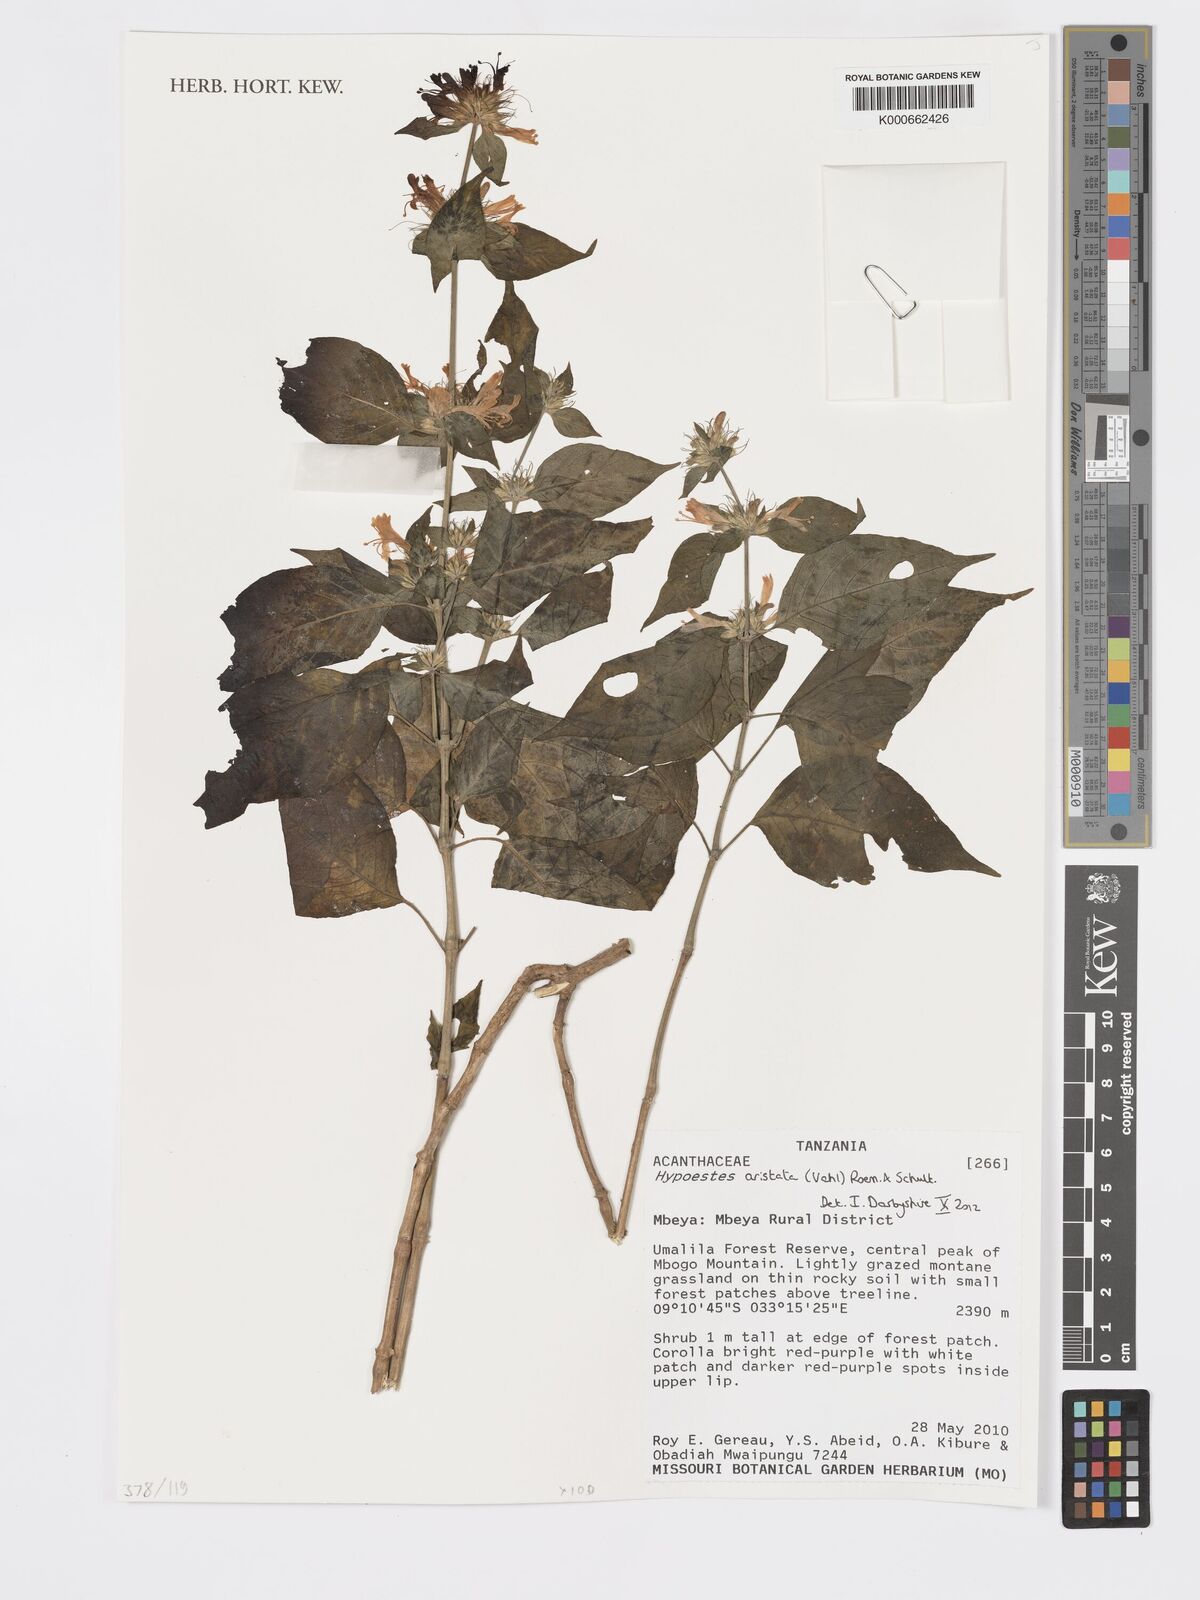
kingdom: Plantae
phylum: Tracheophyta
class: Magnoliopsida
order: Lamiales
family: Acanthaceae
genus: Hypoestes
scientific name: Hypoestes aristata
